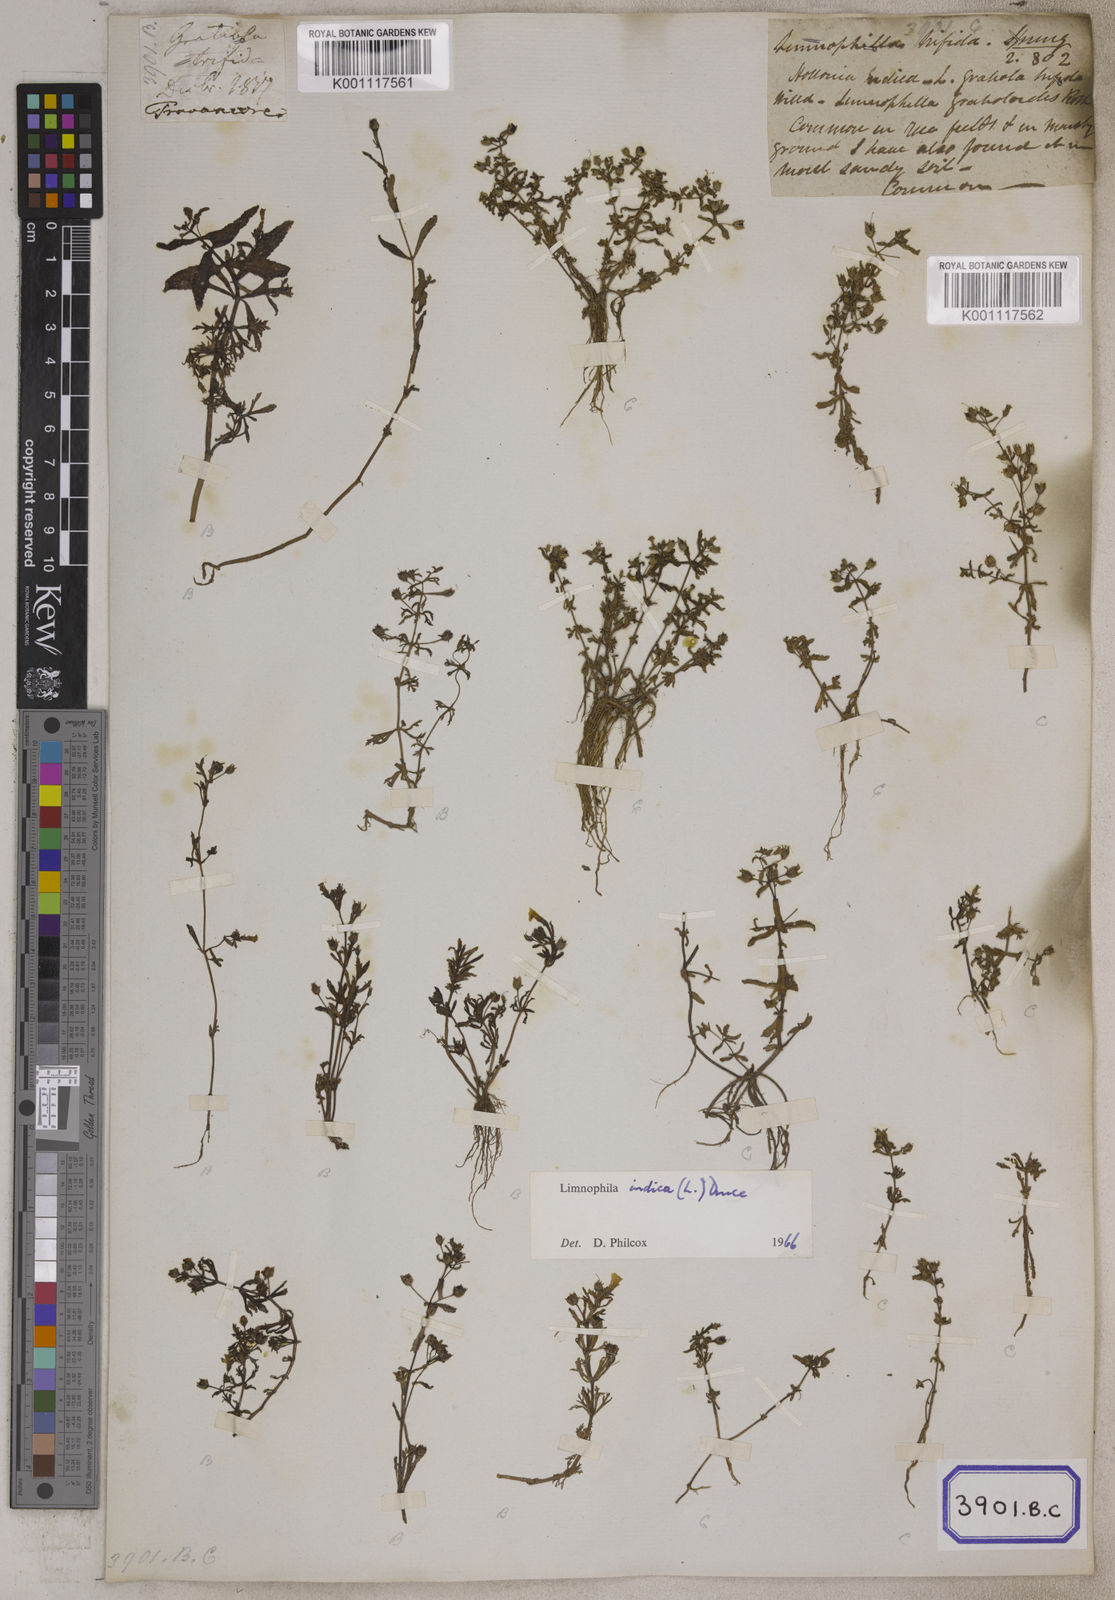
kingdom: Plantae
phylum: Tracheophyta
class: Magnoliopsida
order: Lamiales
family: Plantaginaceae
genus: Limnophila
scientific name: Limnophila indica
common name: Indian marshweed
